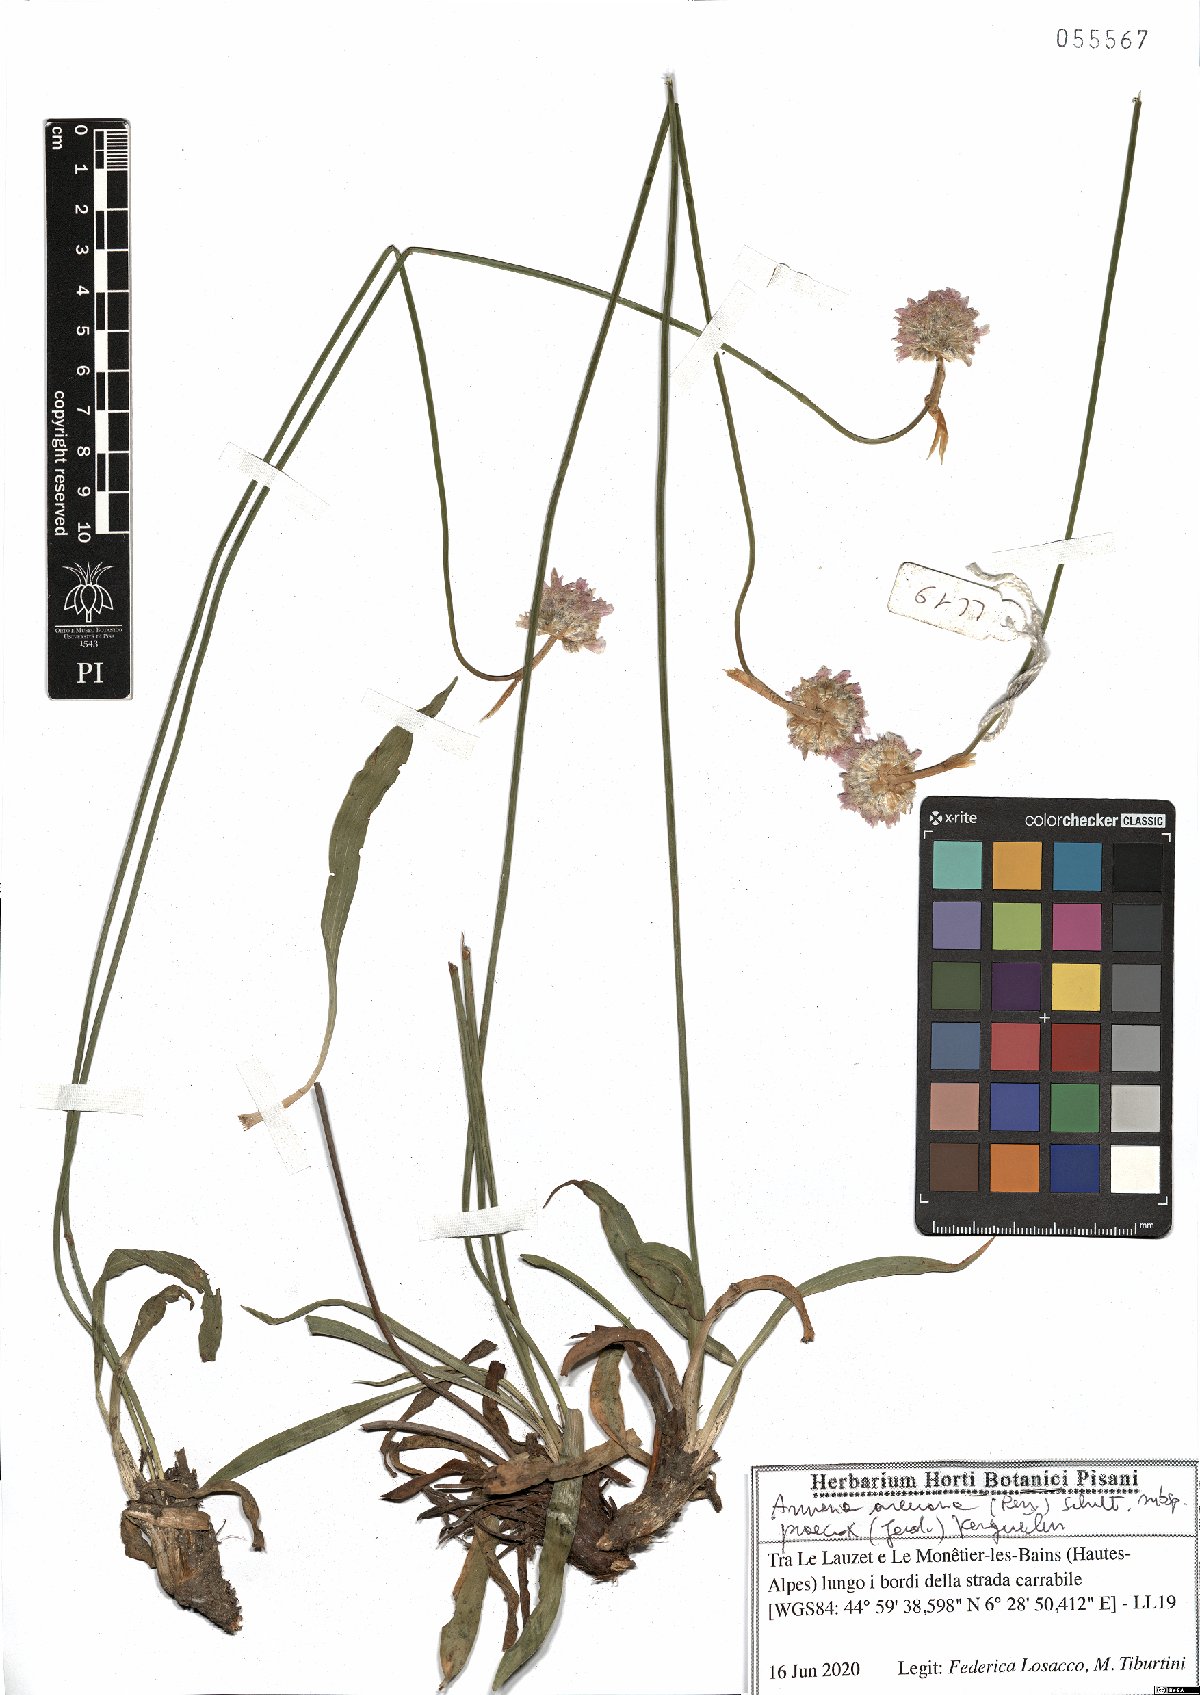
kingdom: Plantae
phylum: Tracheophyta
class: Magnoliopsida
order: Caryophyllales
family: Plumbaginaceae
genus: Armeria
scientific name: Armeria arenaria
